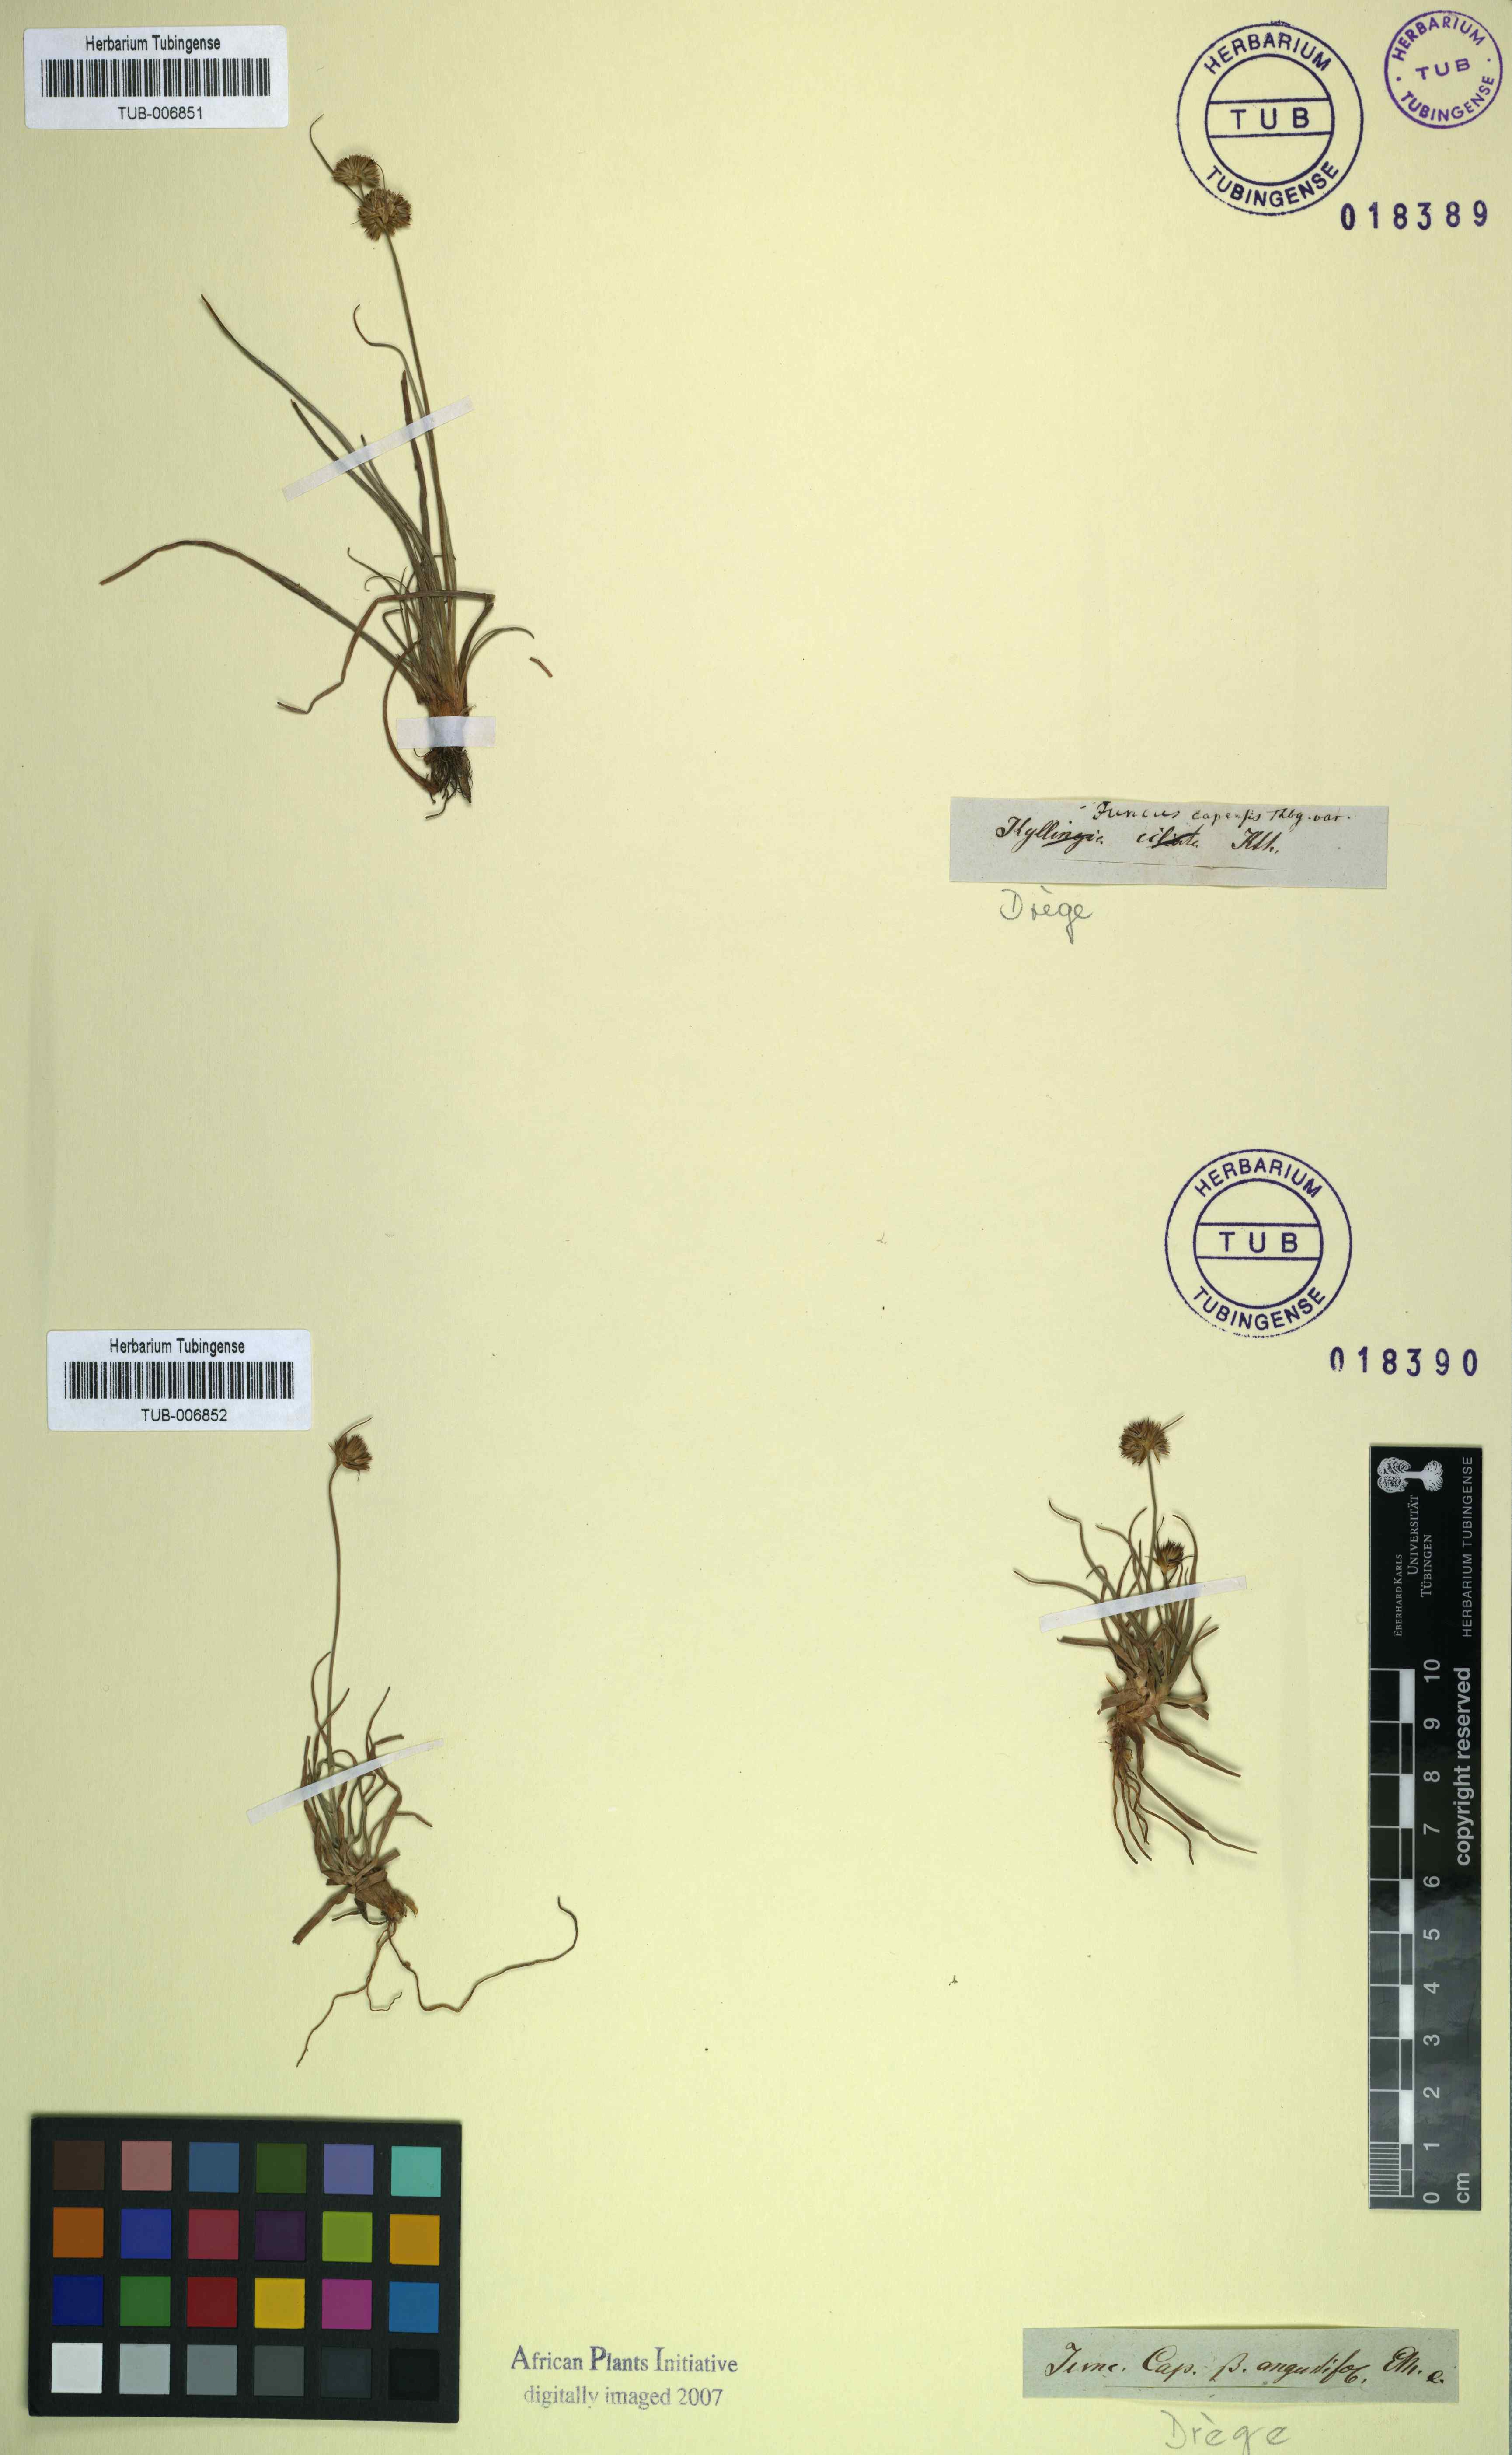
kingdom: Plantae
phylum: Tracheophyta
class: Liliopsida
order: Poales
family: Juncaceae
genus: Juncus
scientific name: Juncus capensis
